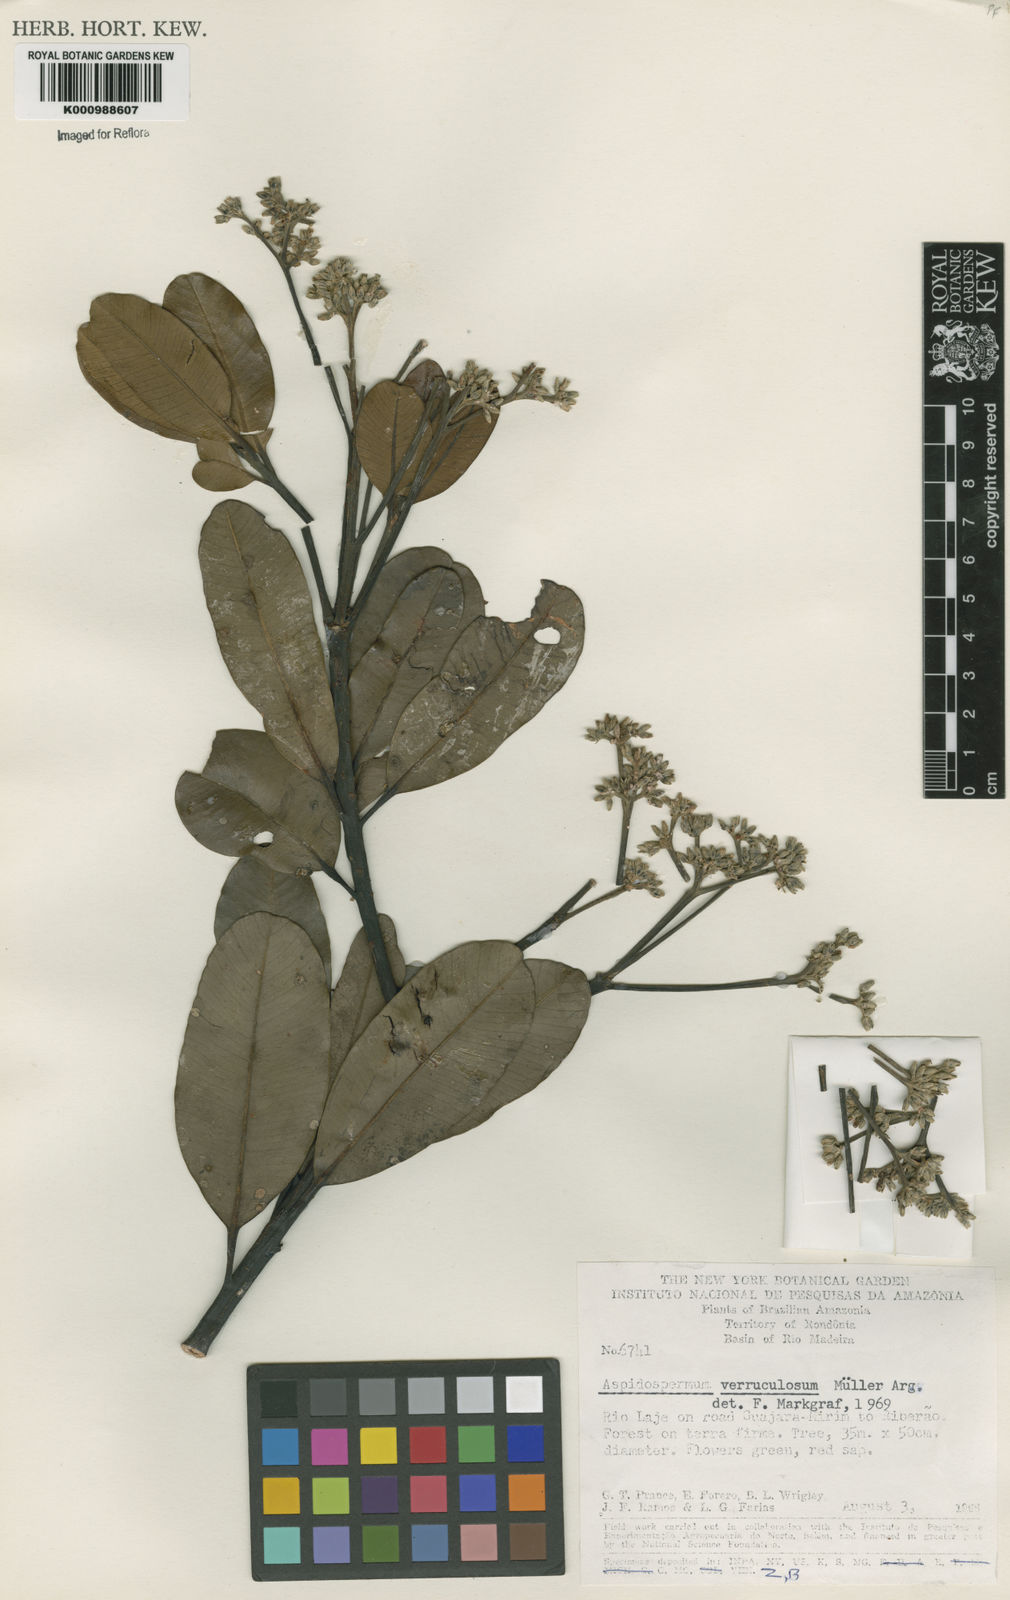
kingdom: Plantae
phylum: Tracheophyta
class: Magnoliopsida
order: Gentianales
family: Apocynaceae
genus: Aspidosperma
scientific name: Aspidosperma
